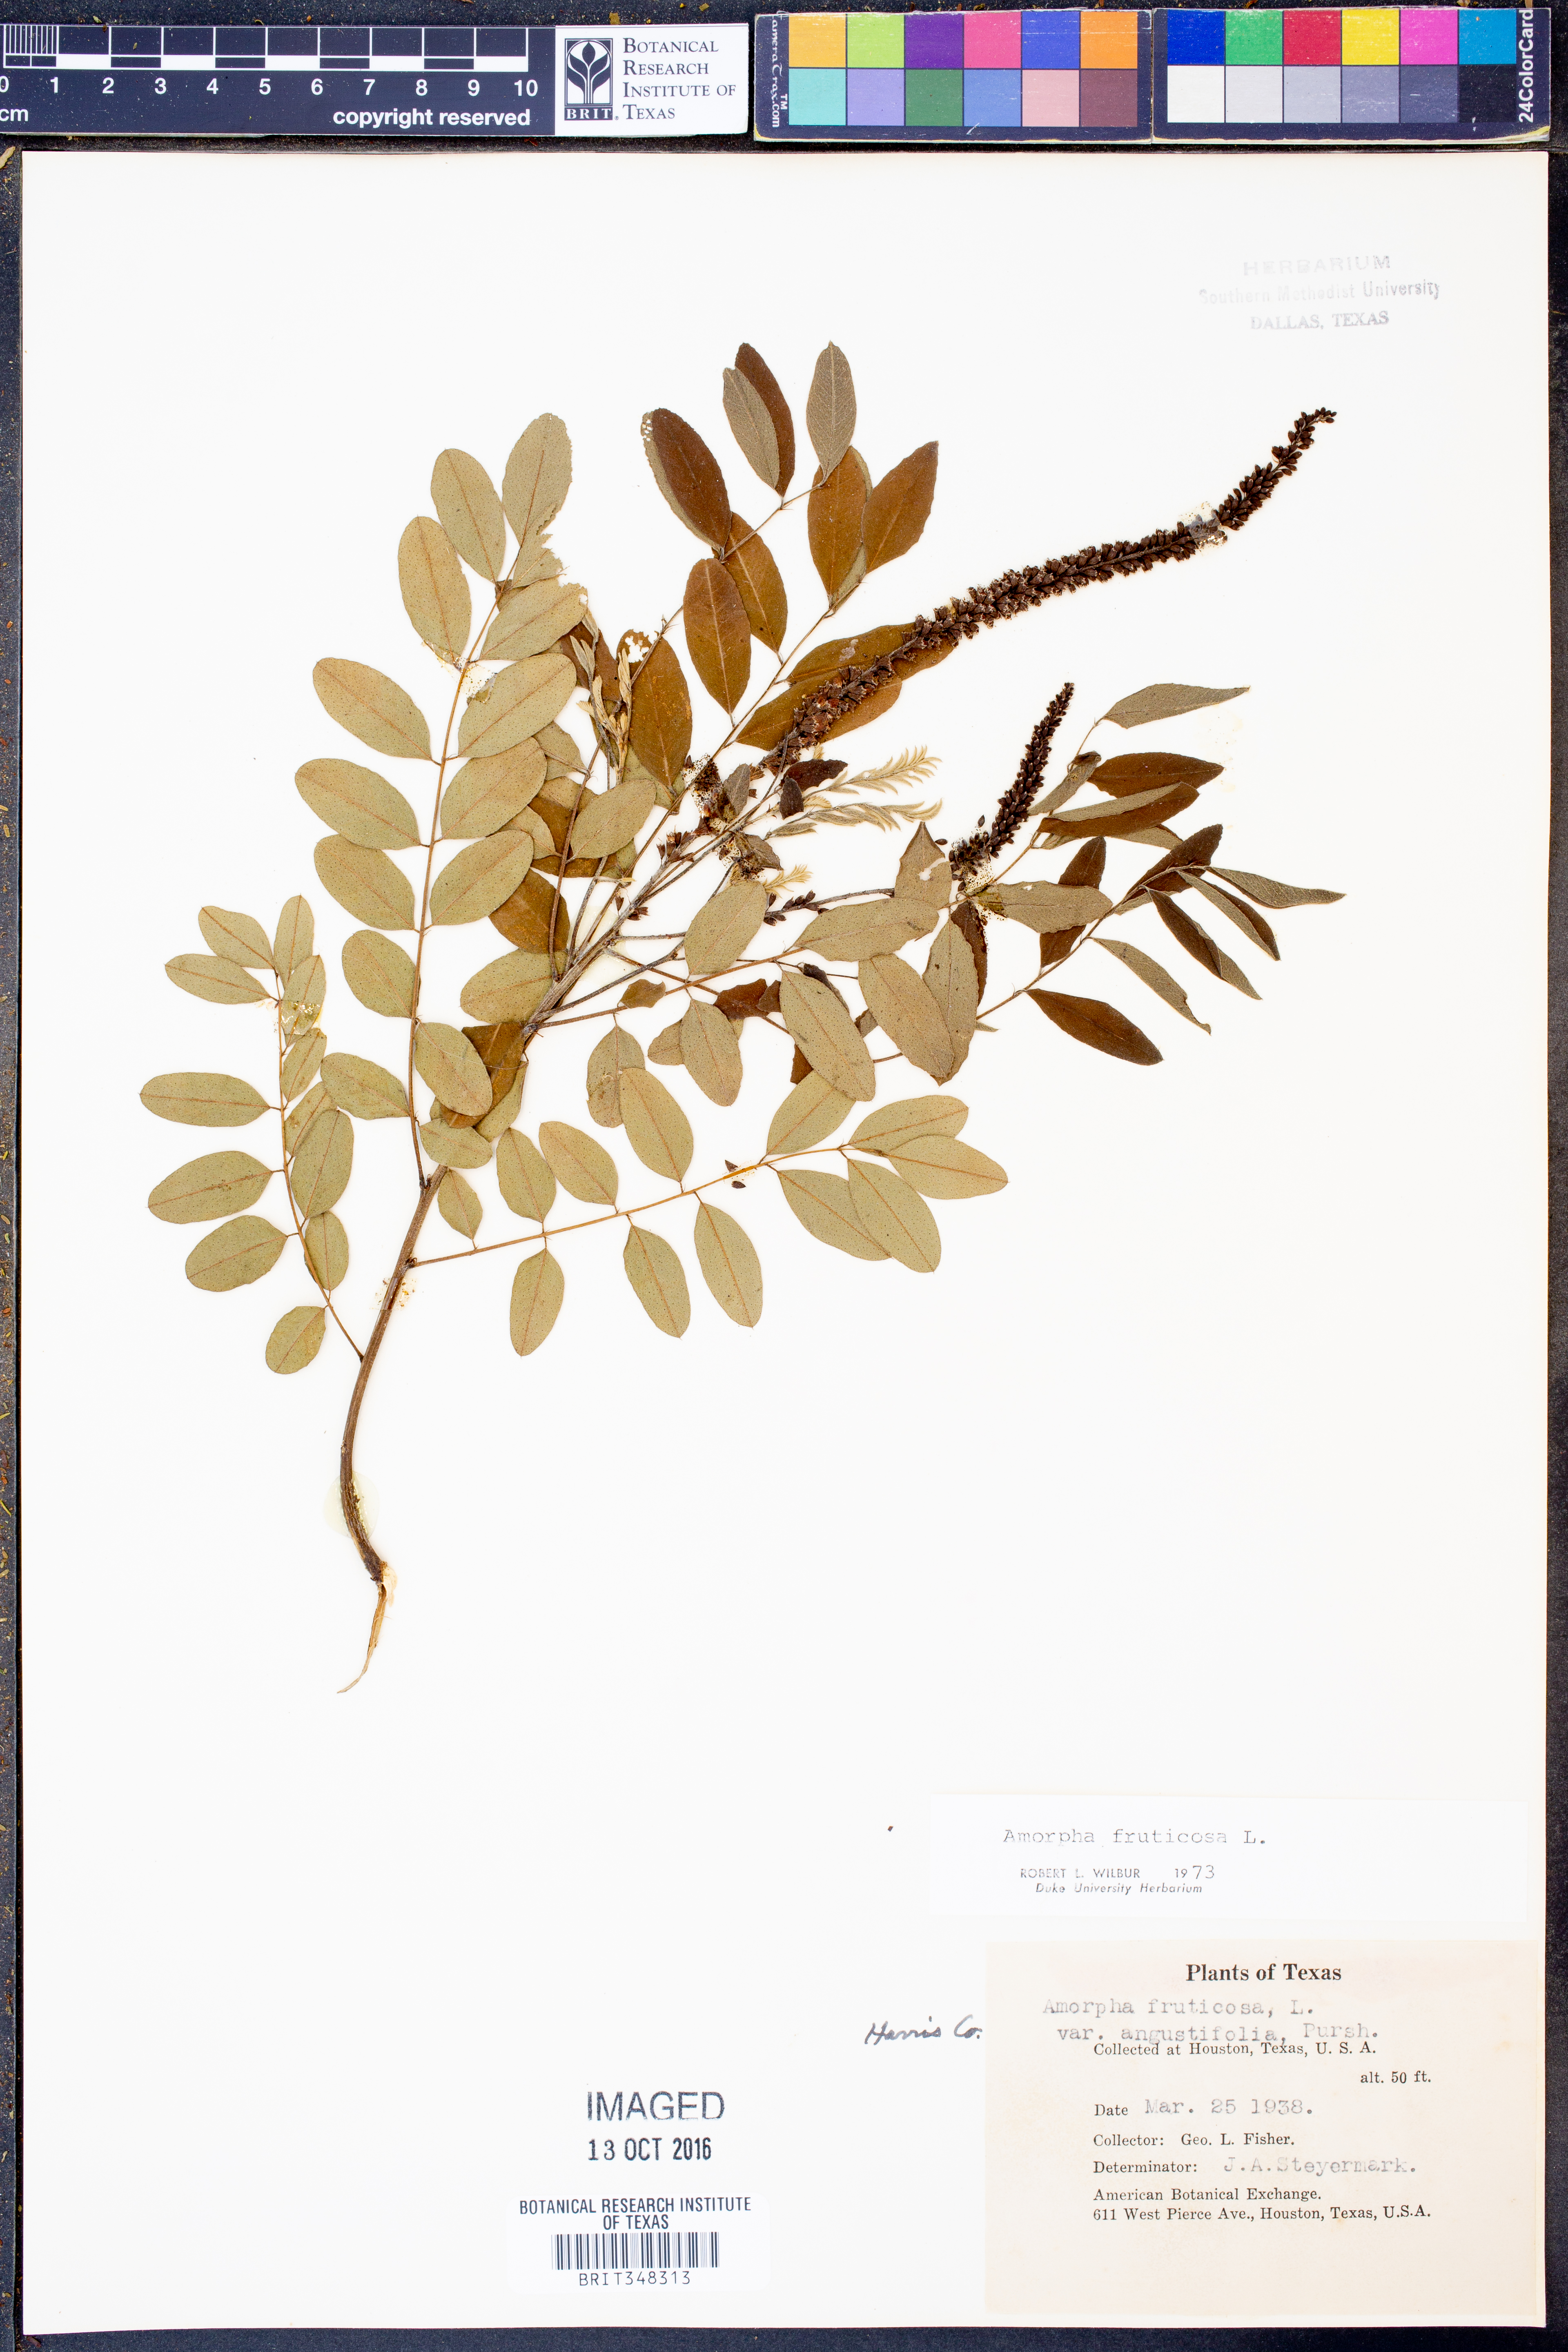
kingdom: Plantae
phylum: Tracheophyta
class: Magnoliopsida
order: Fabales
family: Fabaceae
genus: Amorpha
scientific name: Amorpha fruticosa
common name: False indigo
